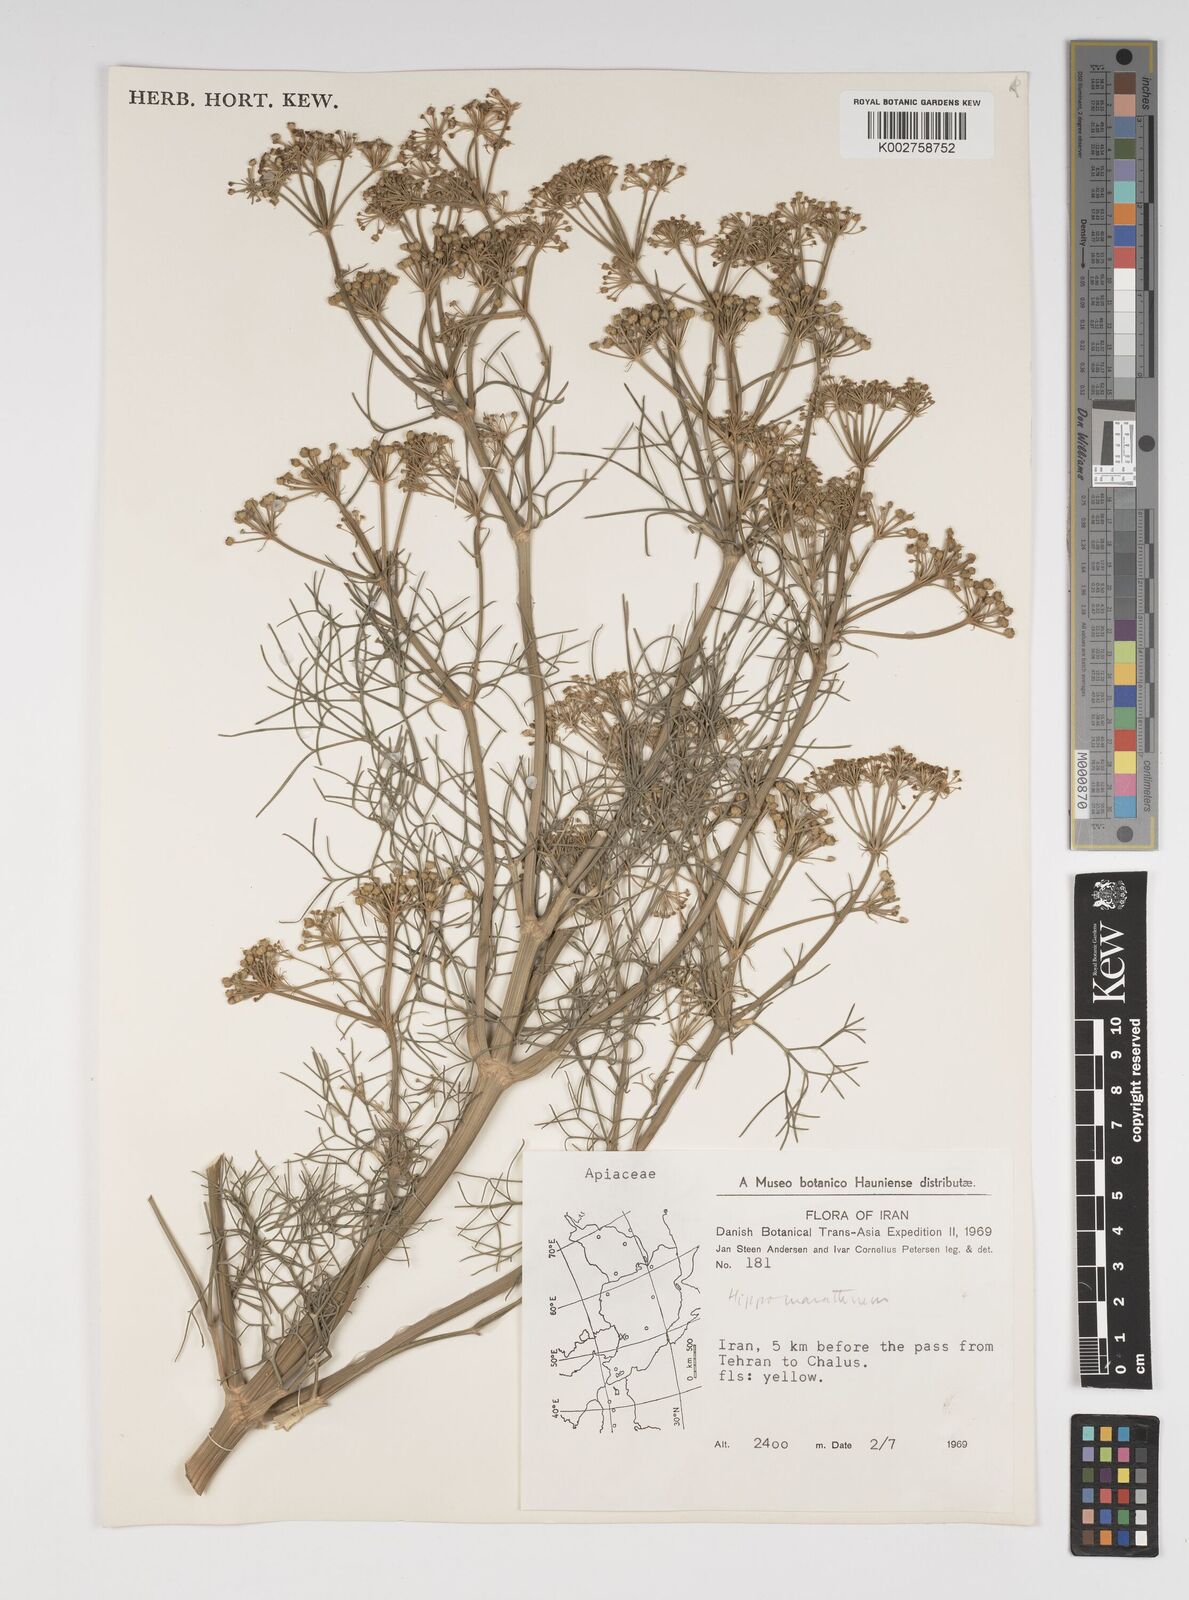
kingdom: Plantae
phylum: Tracheophyta
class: Magnoliopsida
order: Apiales
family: Apiaceae
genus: Cachrys
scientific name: Cachrys
